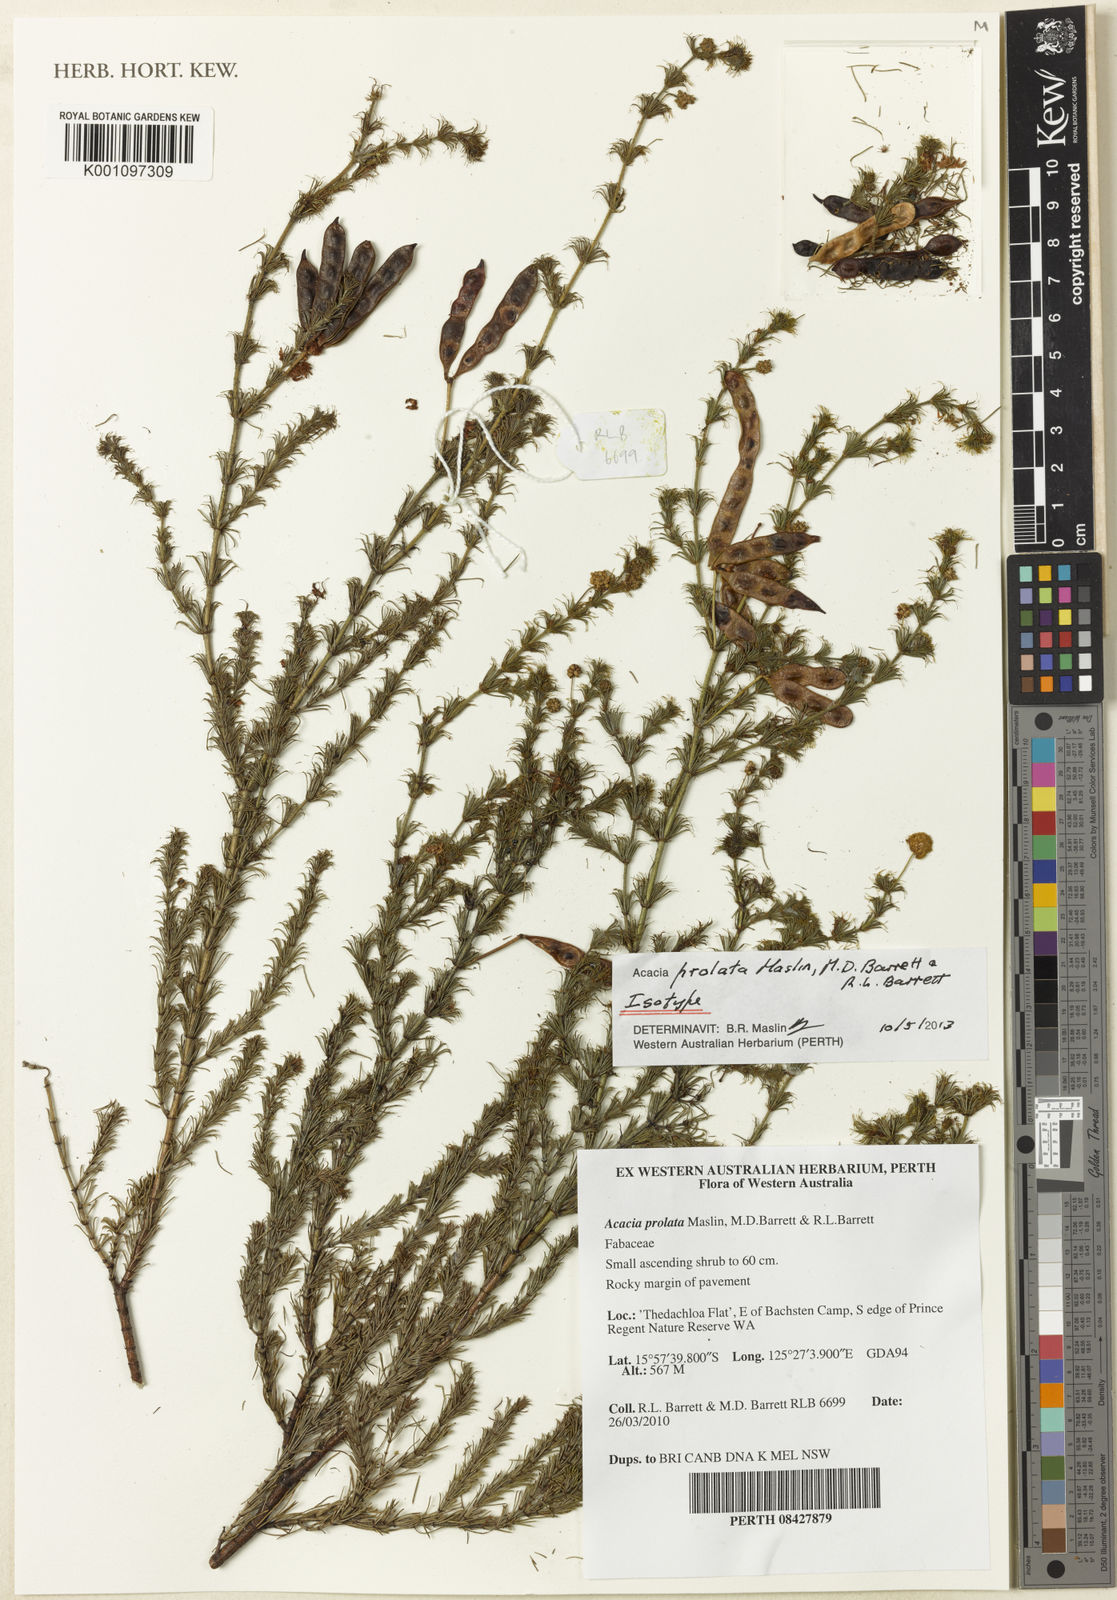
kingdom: Plantae
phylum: Tracheophyta
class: Magnoliopsida
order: Fabales
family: Fabaceae
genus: Acacia
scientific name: Acacia prolata
